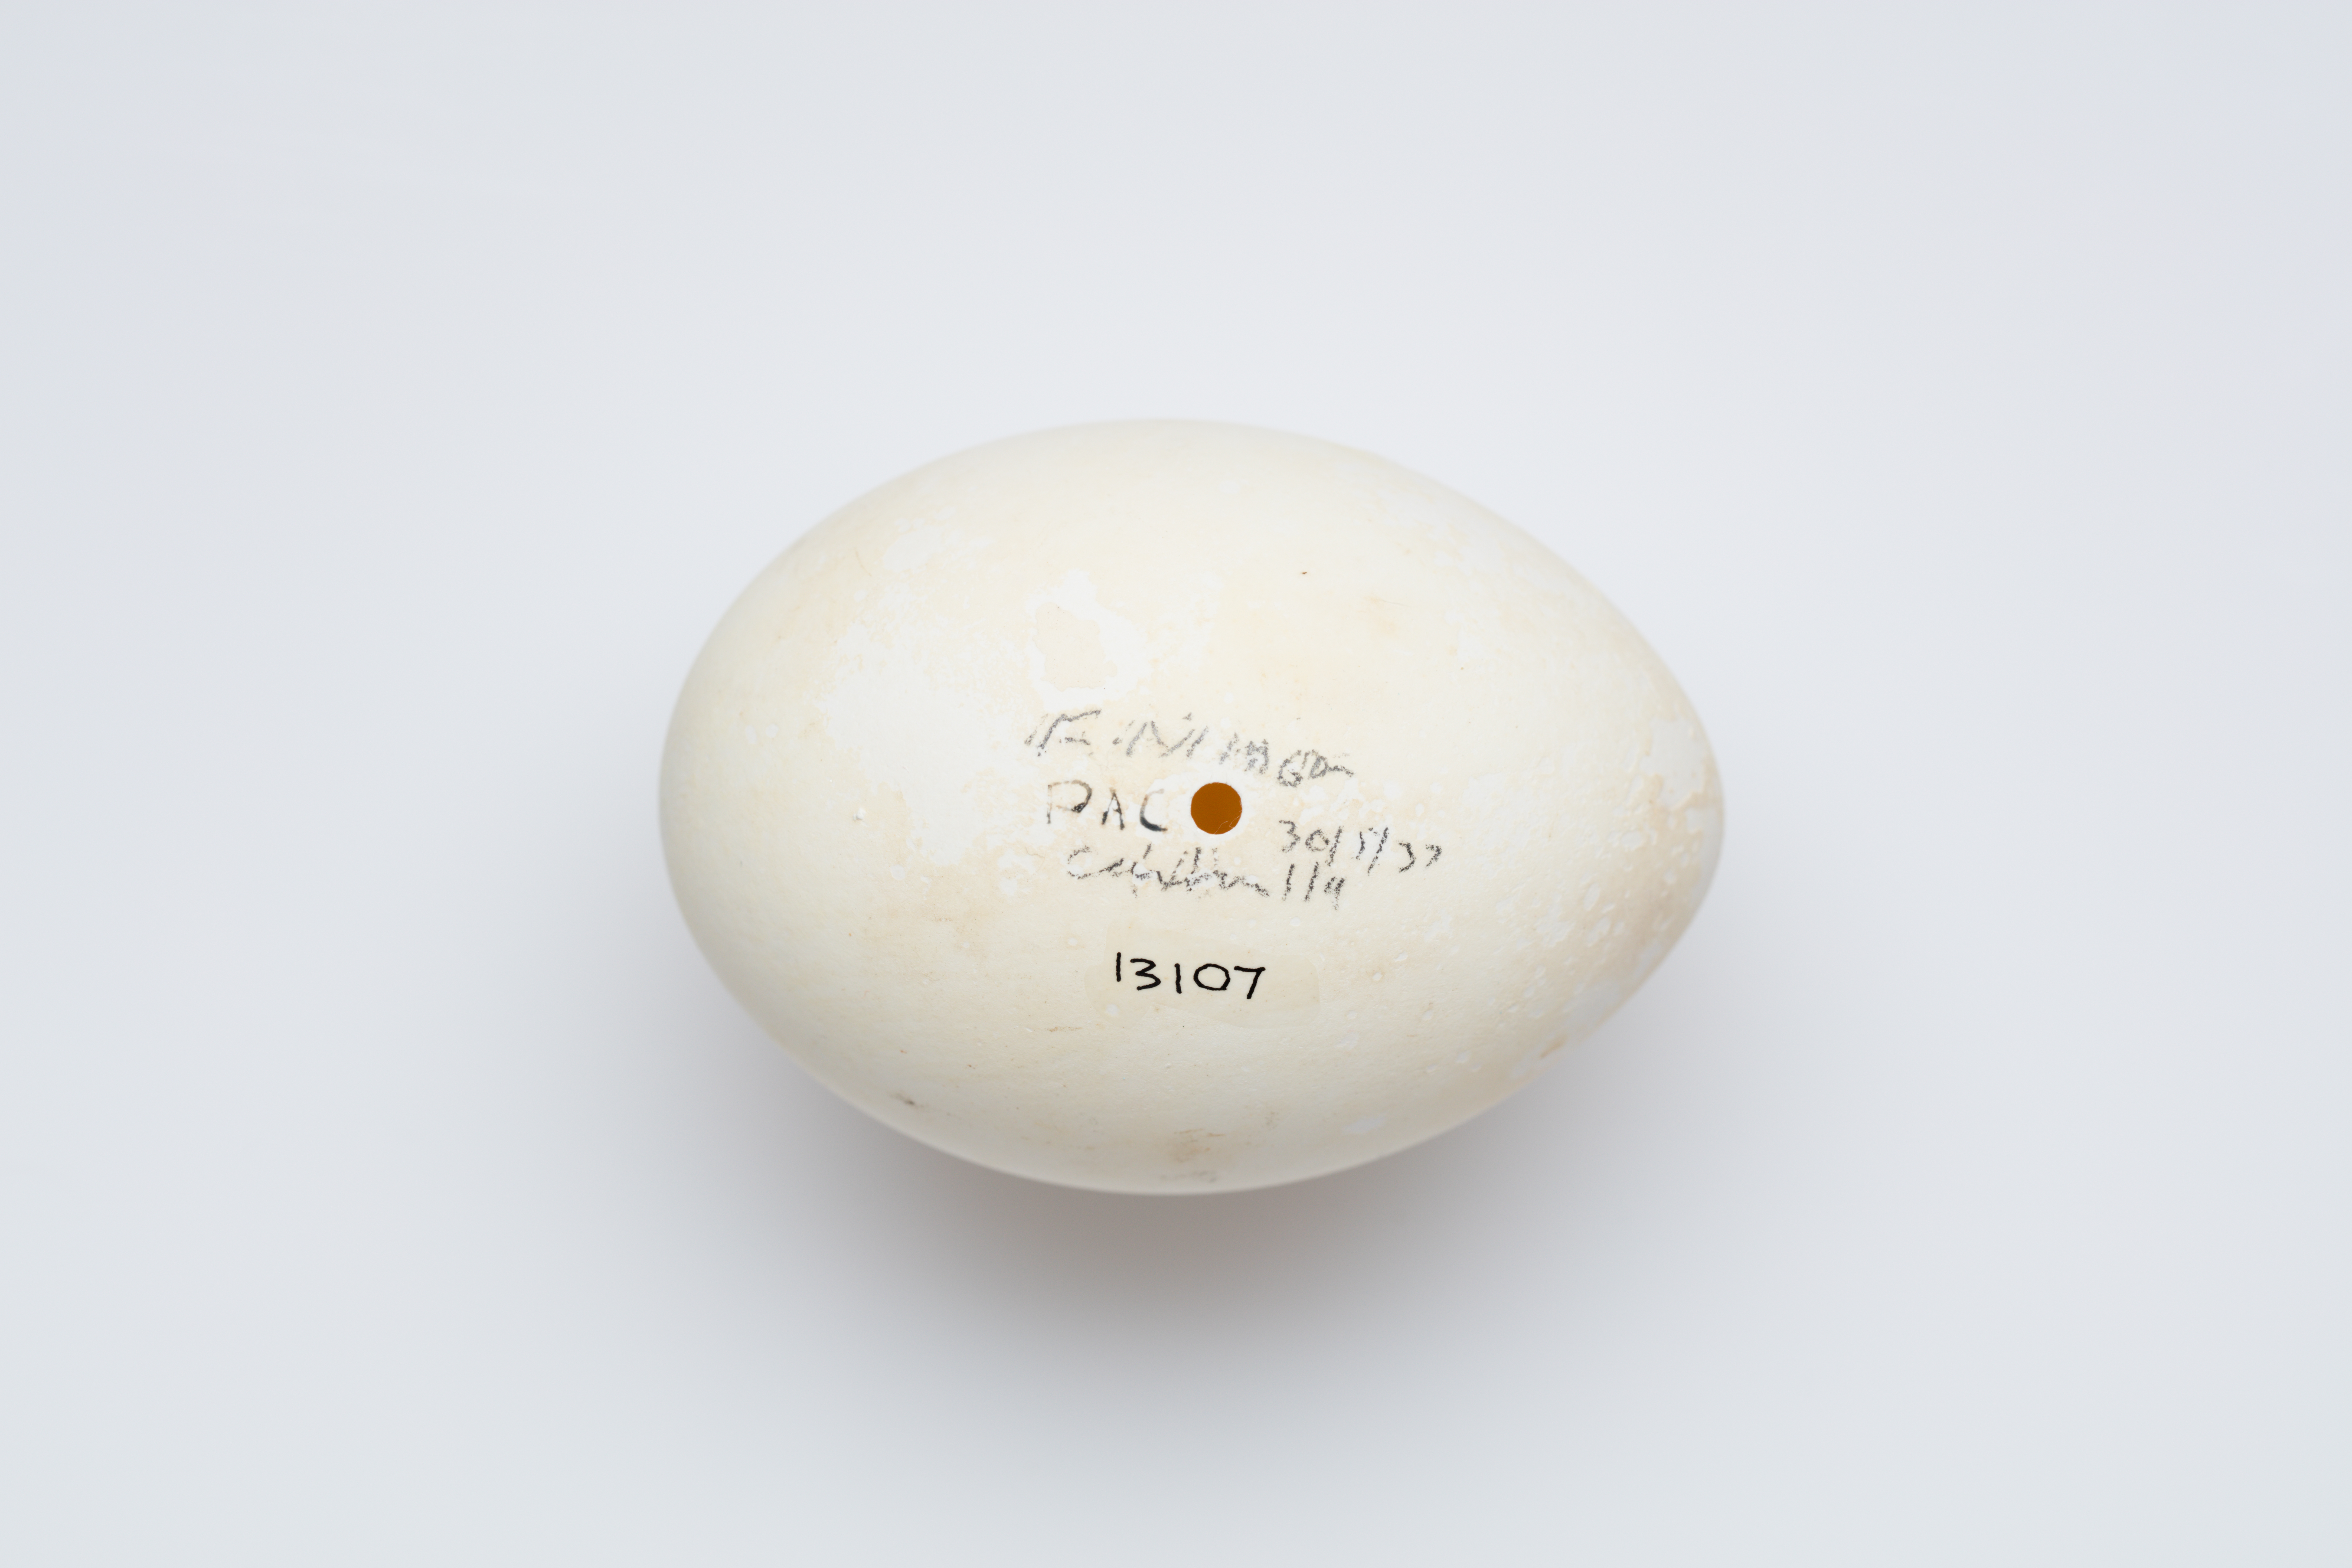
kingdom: Animalia
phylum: Chordata
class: Aves
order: Suliformes
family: Fregatidae
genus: Fregata
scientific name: Fregata minor
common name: Great frigatebird
